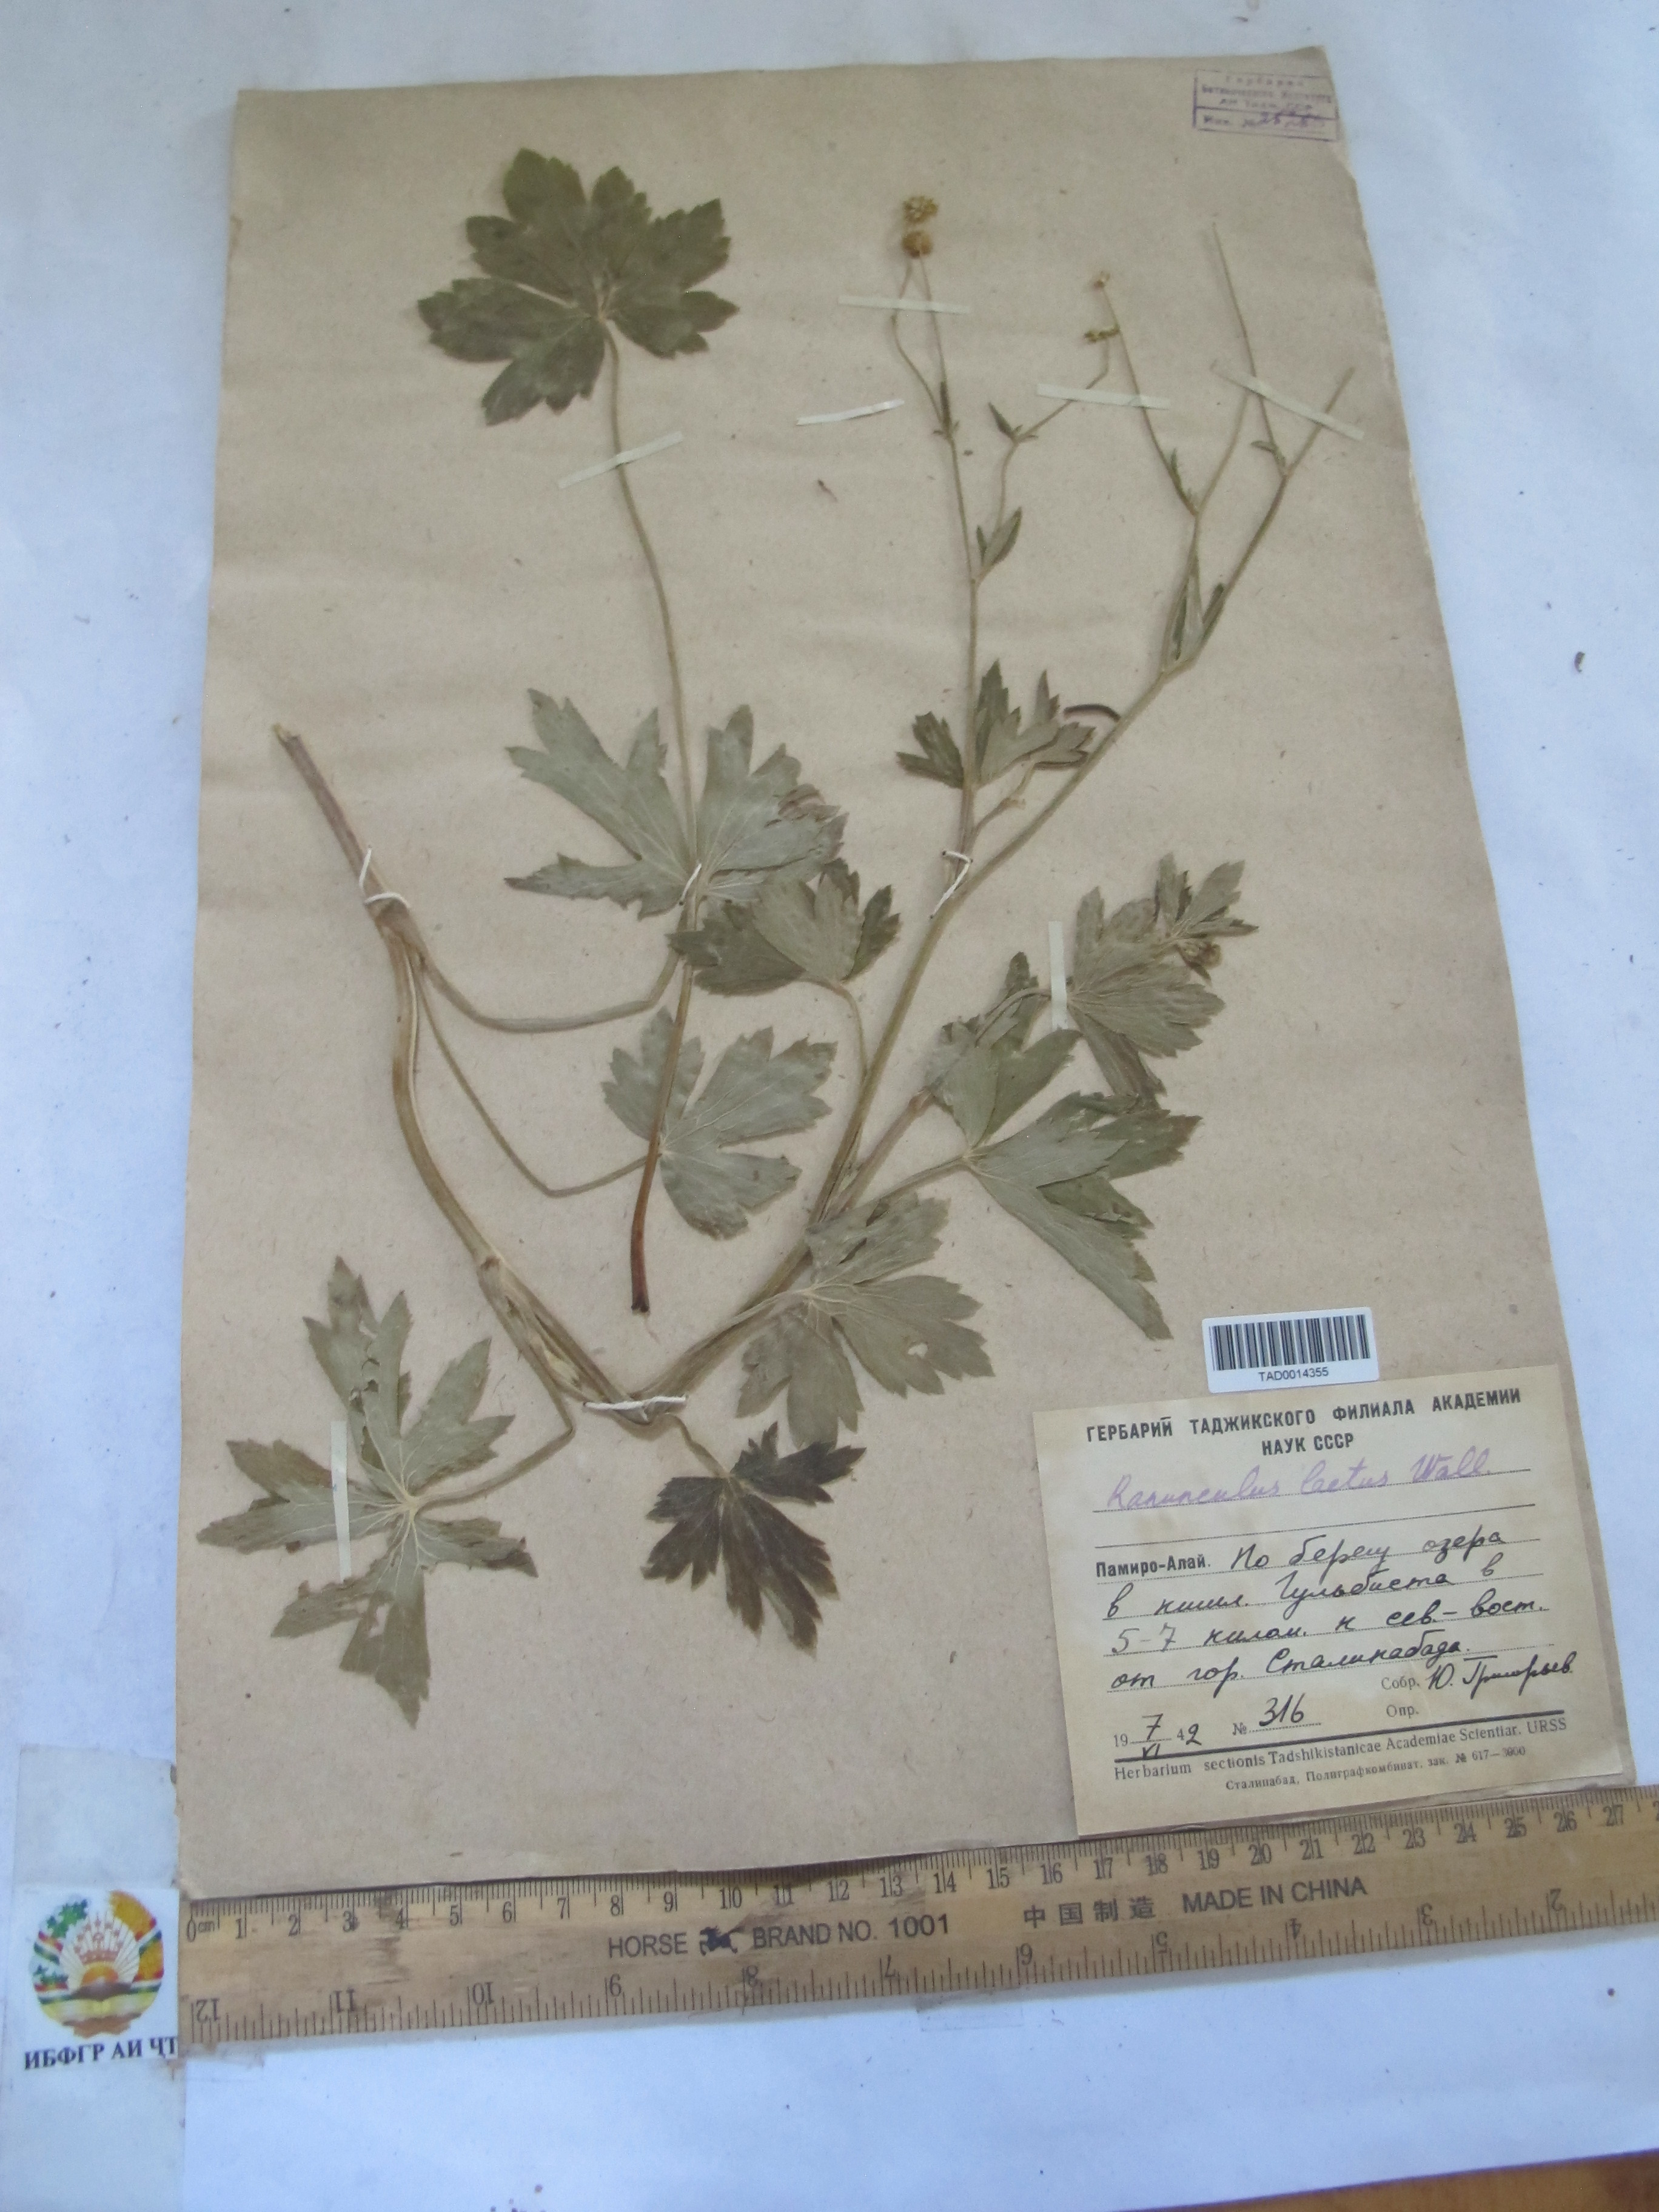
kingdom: Plantae
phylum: Tracheophyta
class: Magnoliopsida
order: Ranunculales
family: Ranunculaceae
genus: Ranunculus
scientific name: Ranunculus distans
